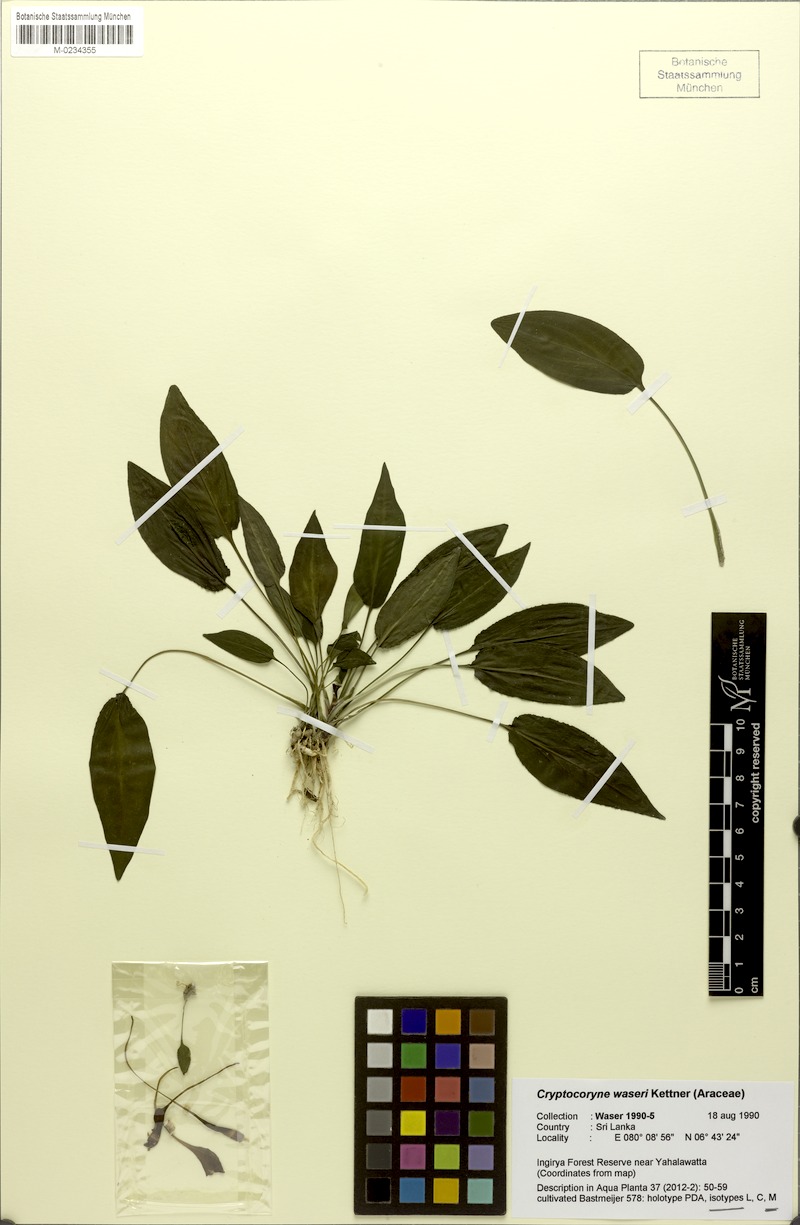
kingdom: Plantae
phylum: Tracheophyta
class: Liliopsida
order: Alismatales
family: Araceae
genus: Cryptocoryne
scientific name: Cryptocoryne
